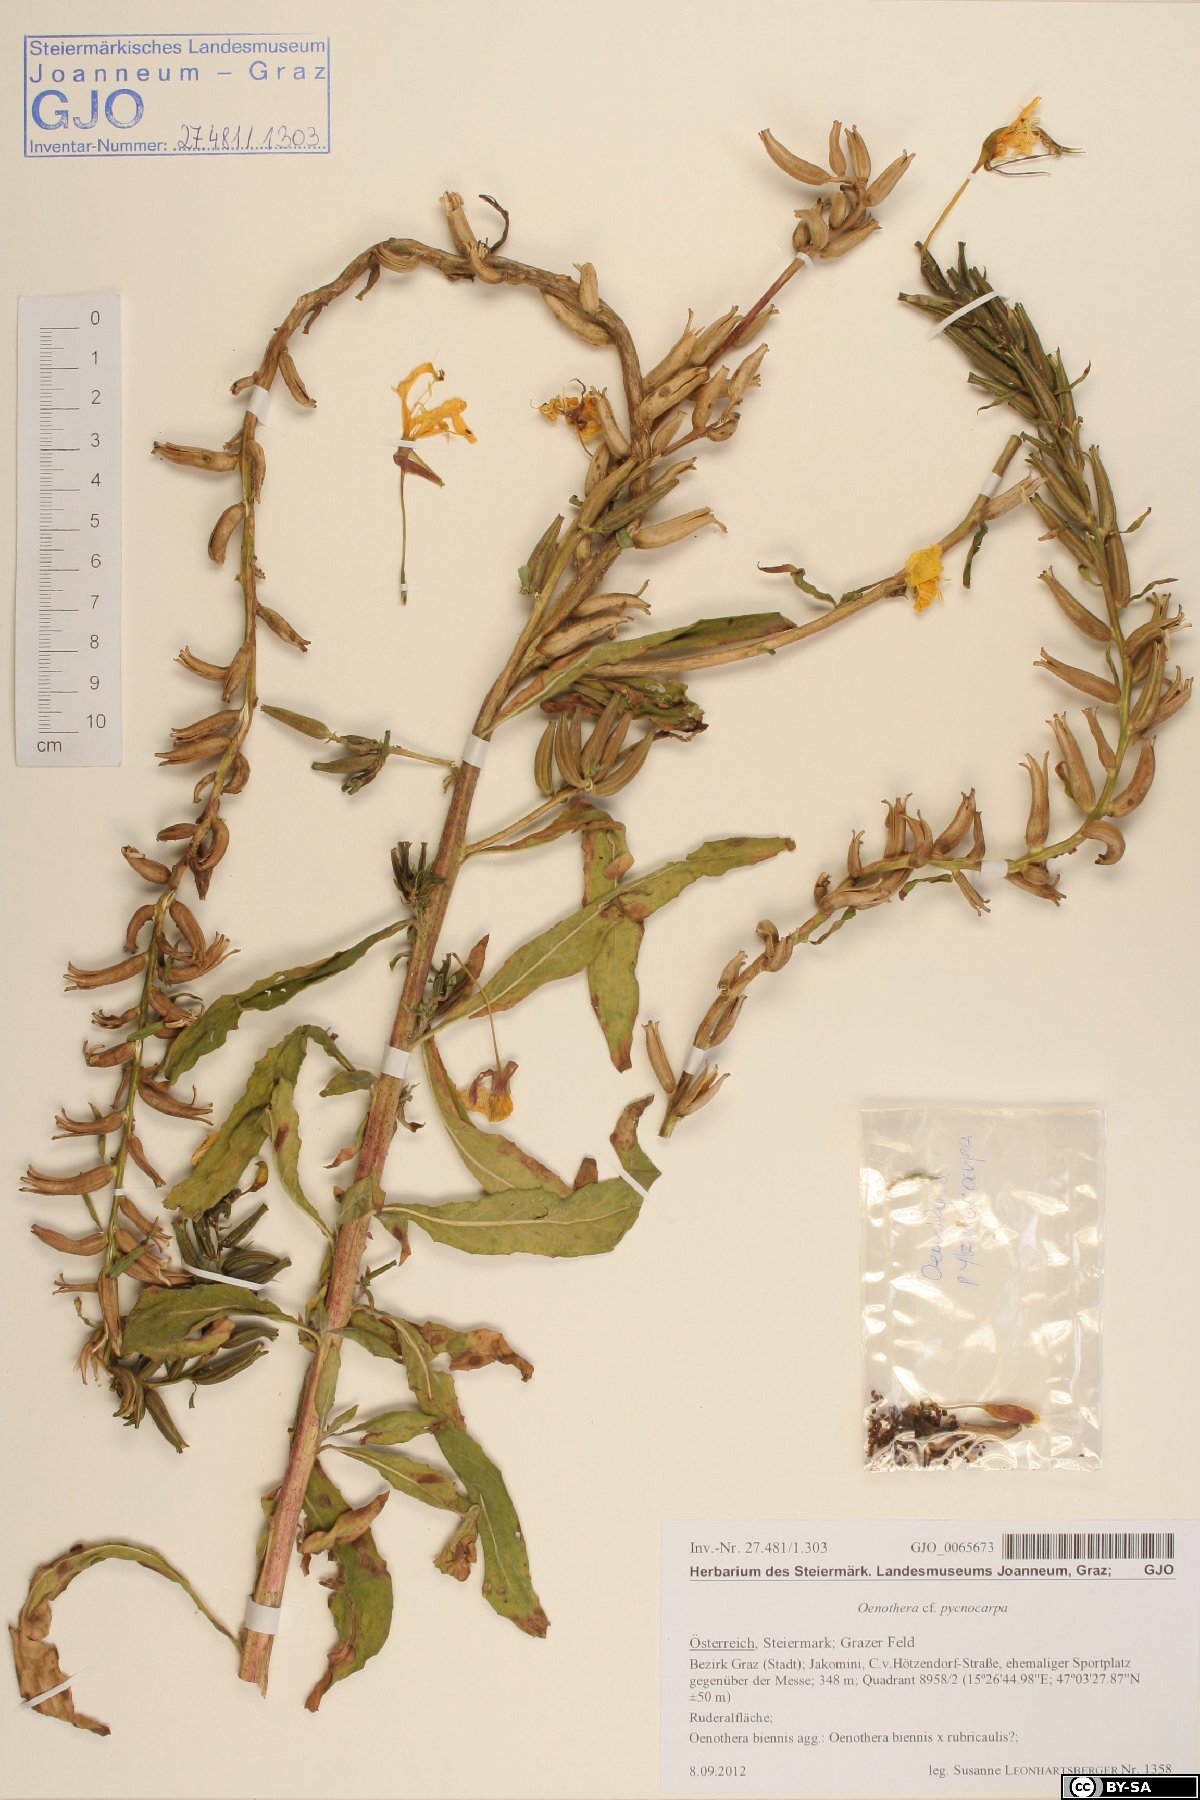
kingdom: Plantae
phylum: Tracheophyta
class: Magnoliopsida
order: Myrtales
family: Onagraceae
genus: Oenothera
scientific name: Oenothera biennis
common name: Common evening-primrose
